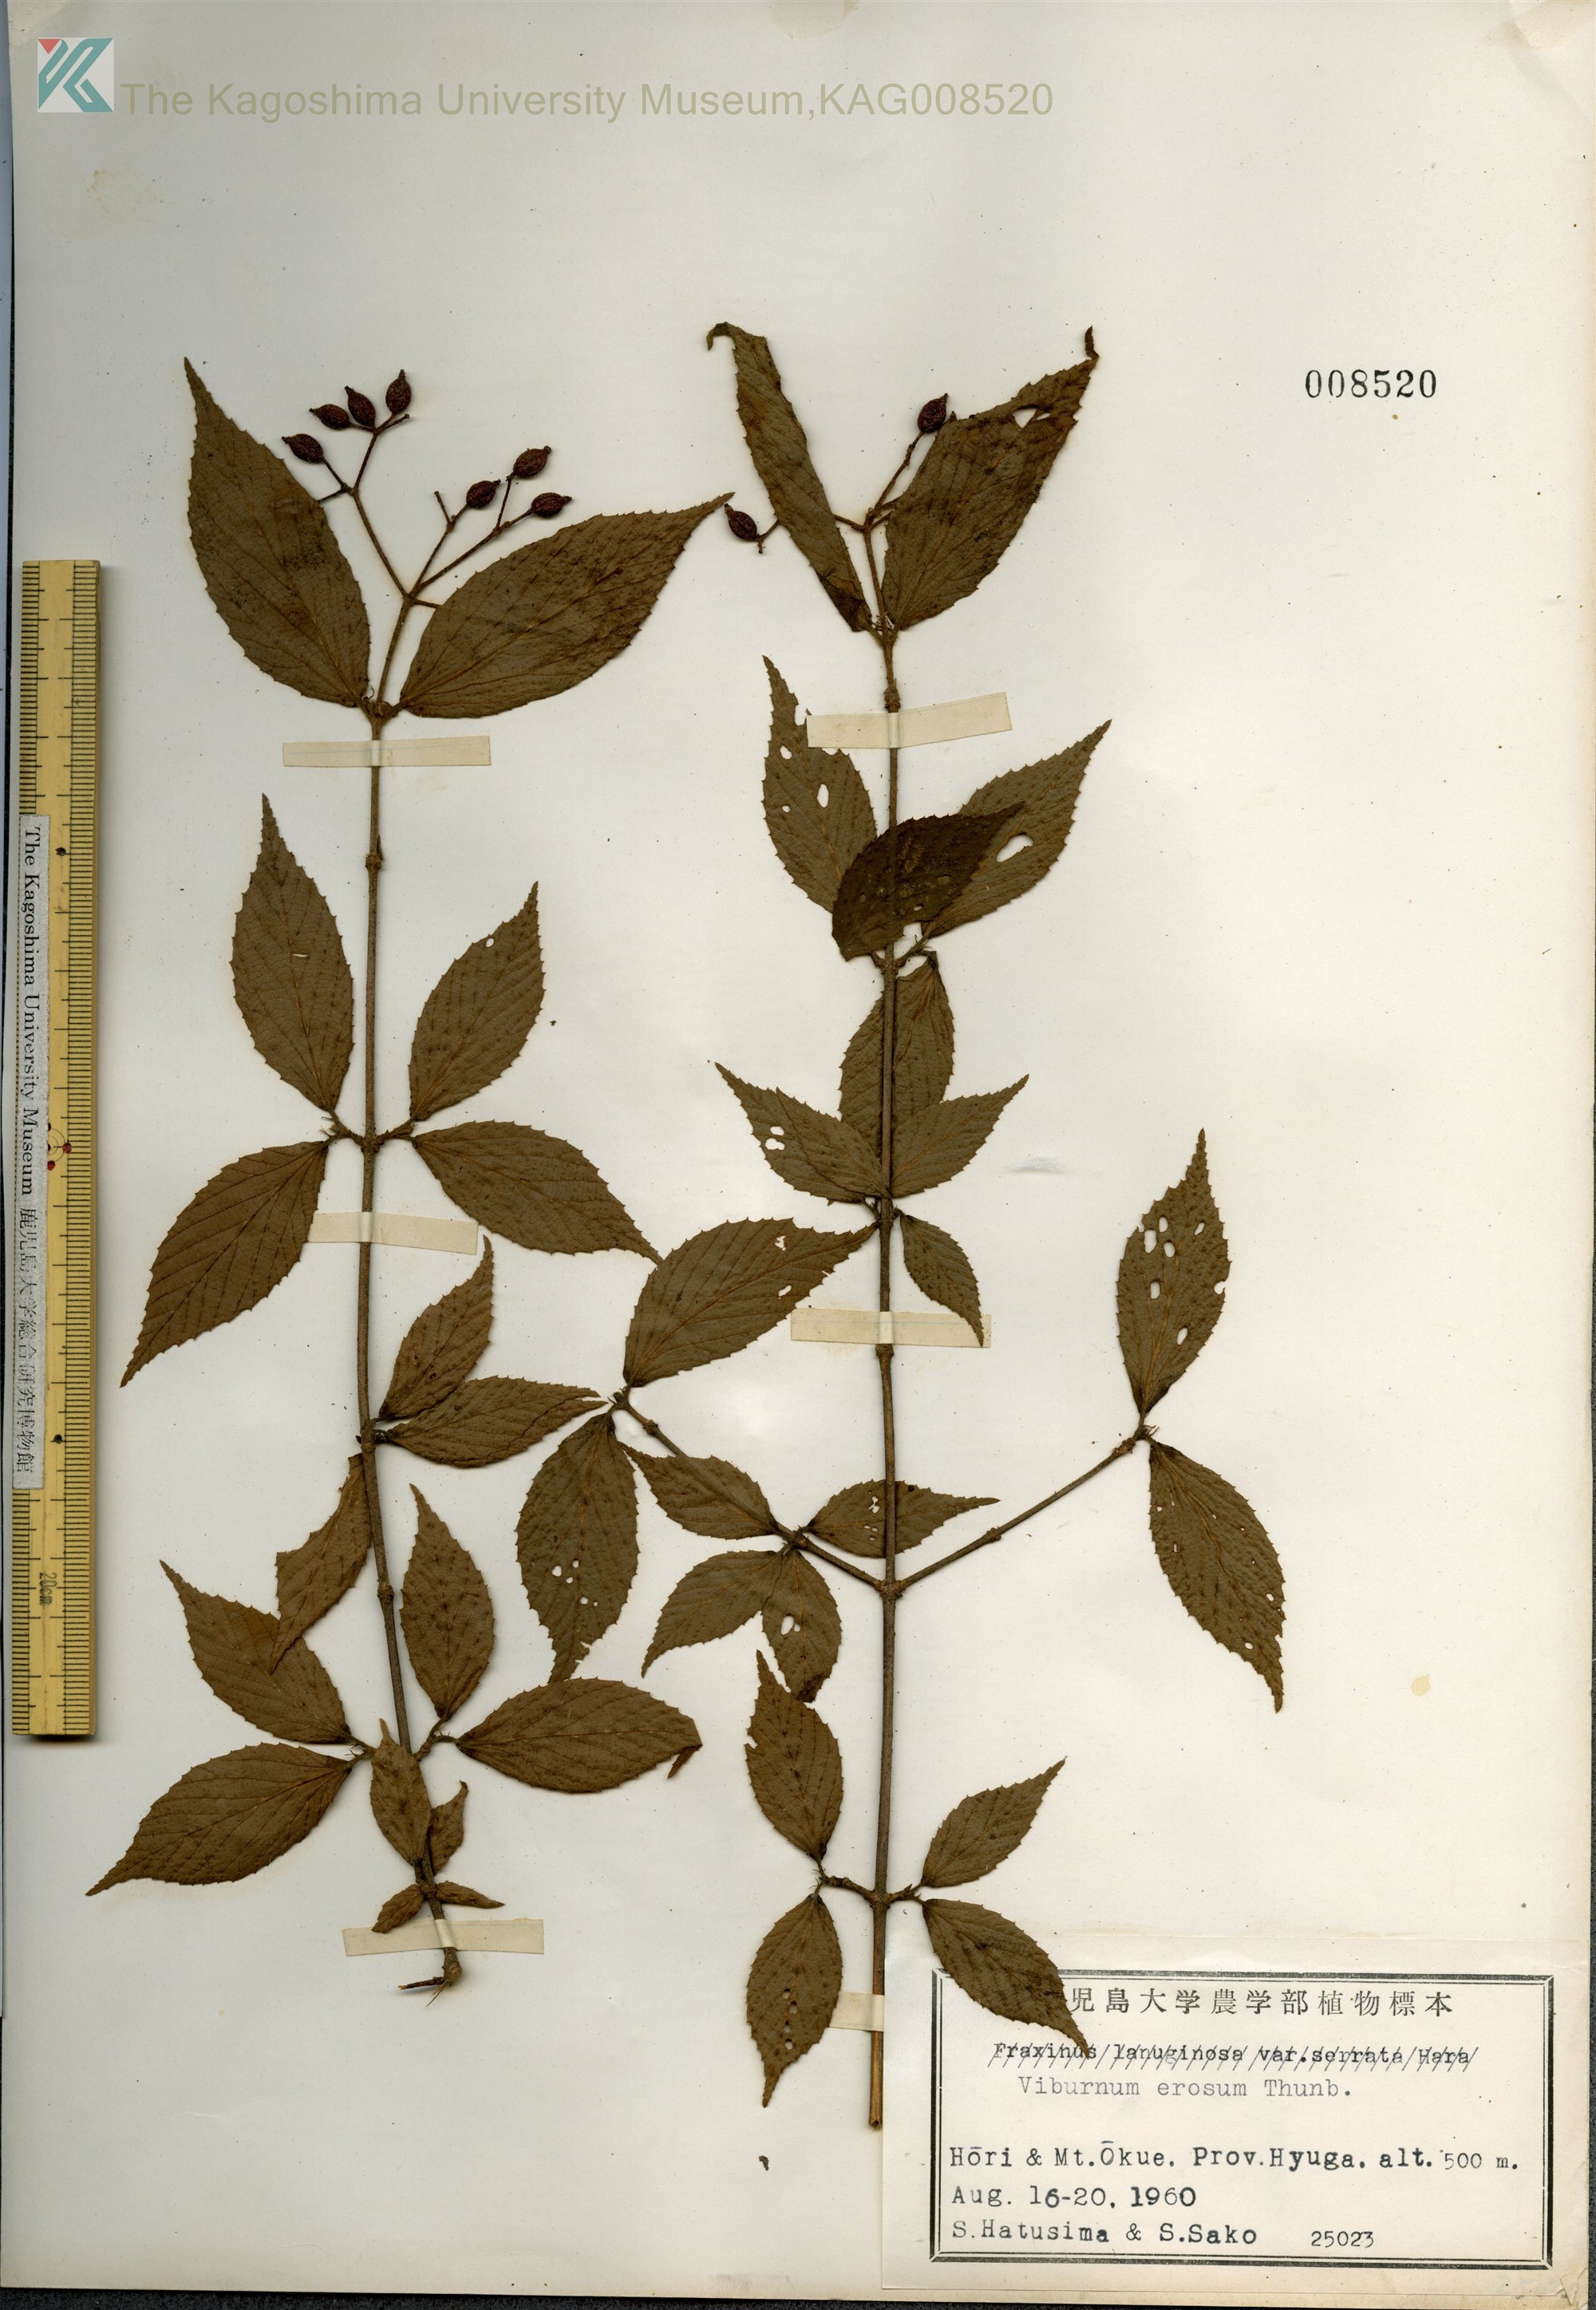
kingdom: Plantae
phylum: Tracheophyta
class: Magnoliopsida
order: Dipsacales
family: Viburnaceae
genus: Viburnum
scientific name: Viburnum erosum
